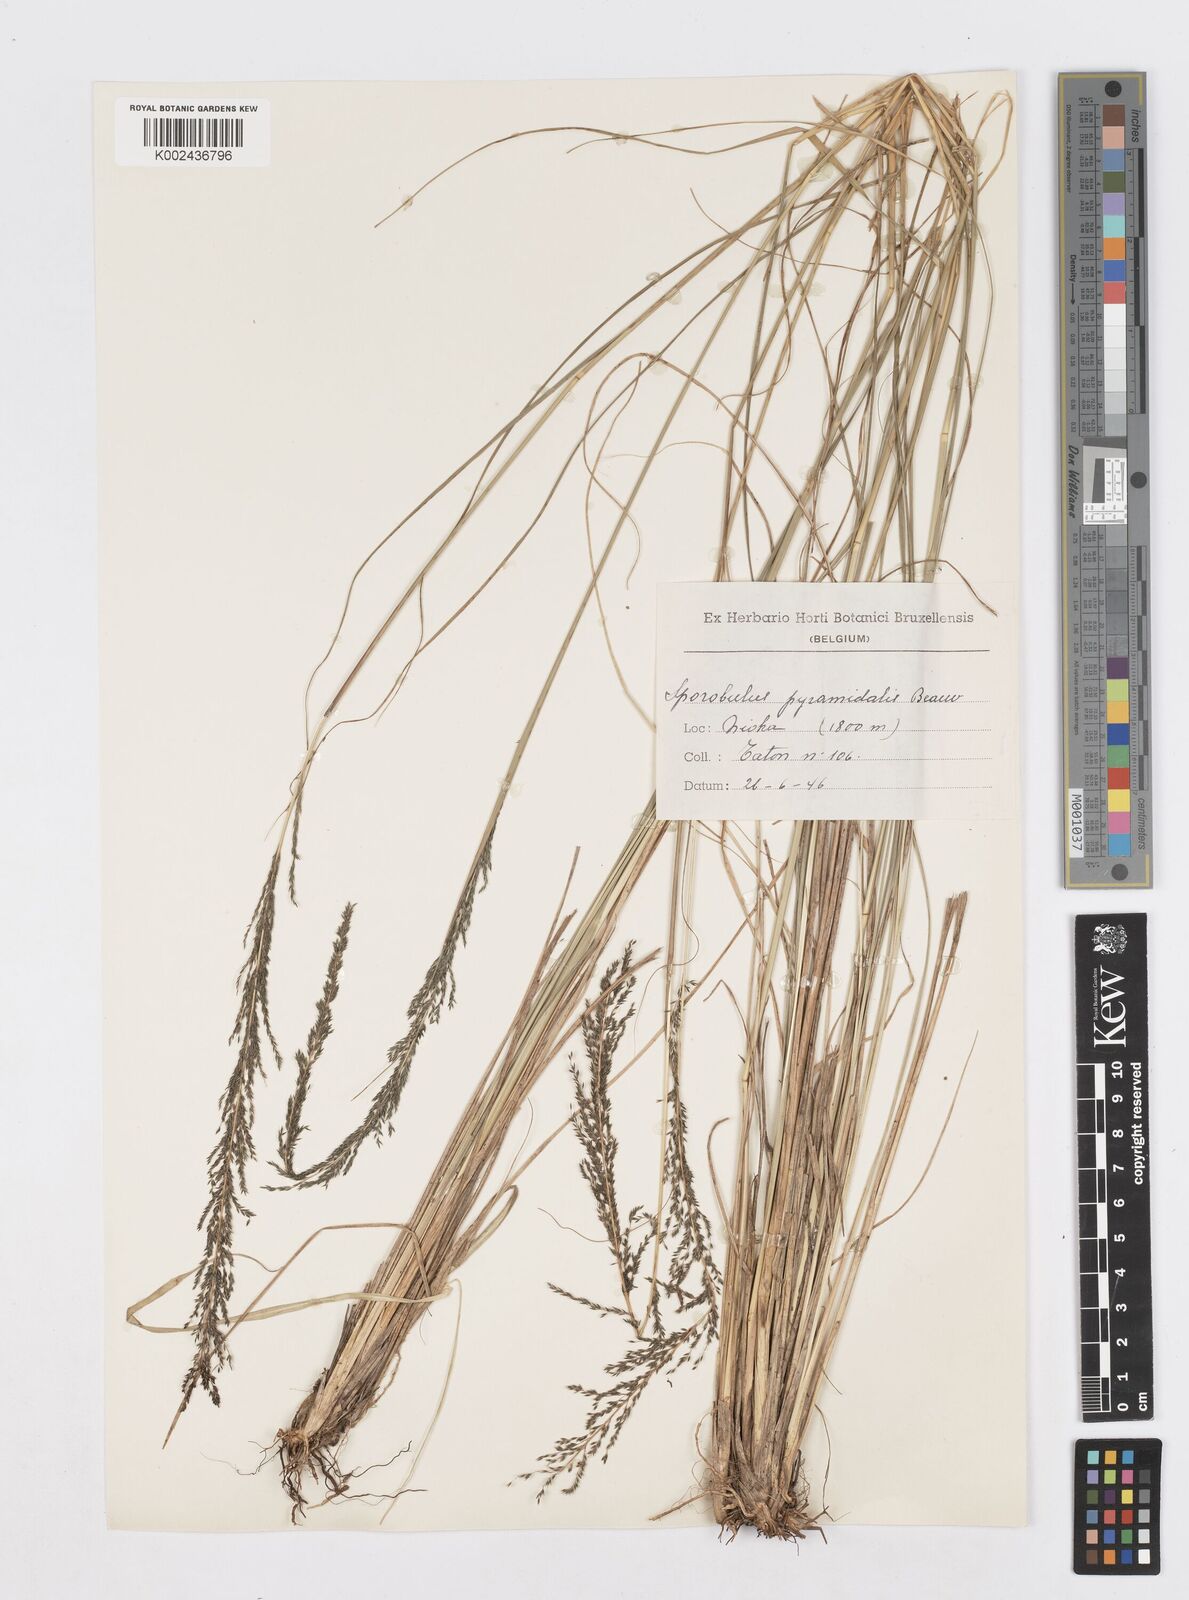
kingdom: Plantae
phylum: Tracheophyta
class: Liliopsida
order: Poales
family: Poaceae
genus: Sporobolus
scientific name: Sporobolus pyramidalis
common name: West indian dropseed
